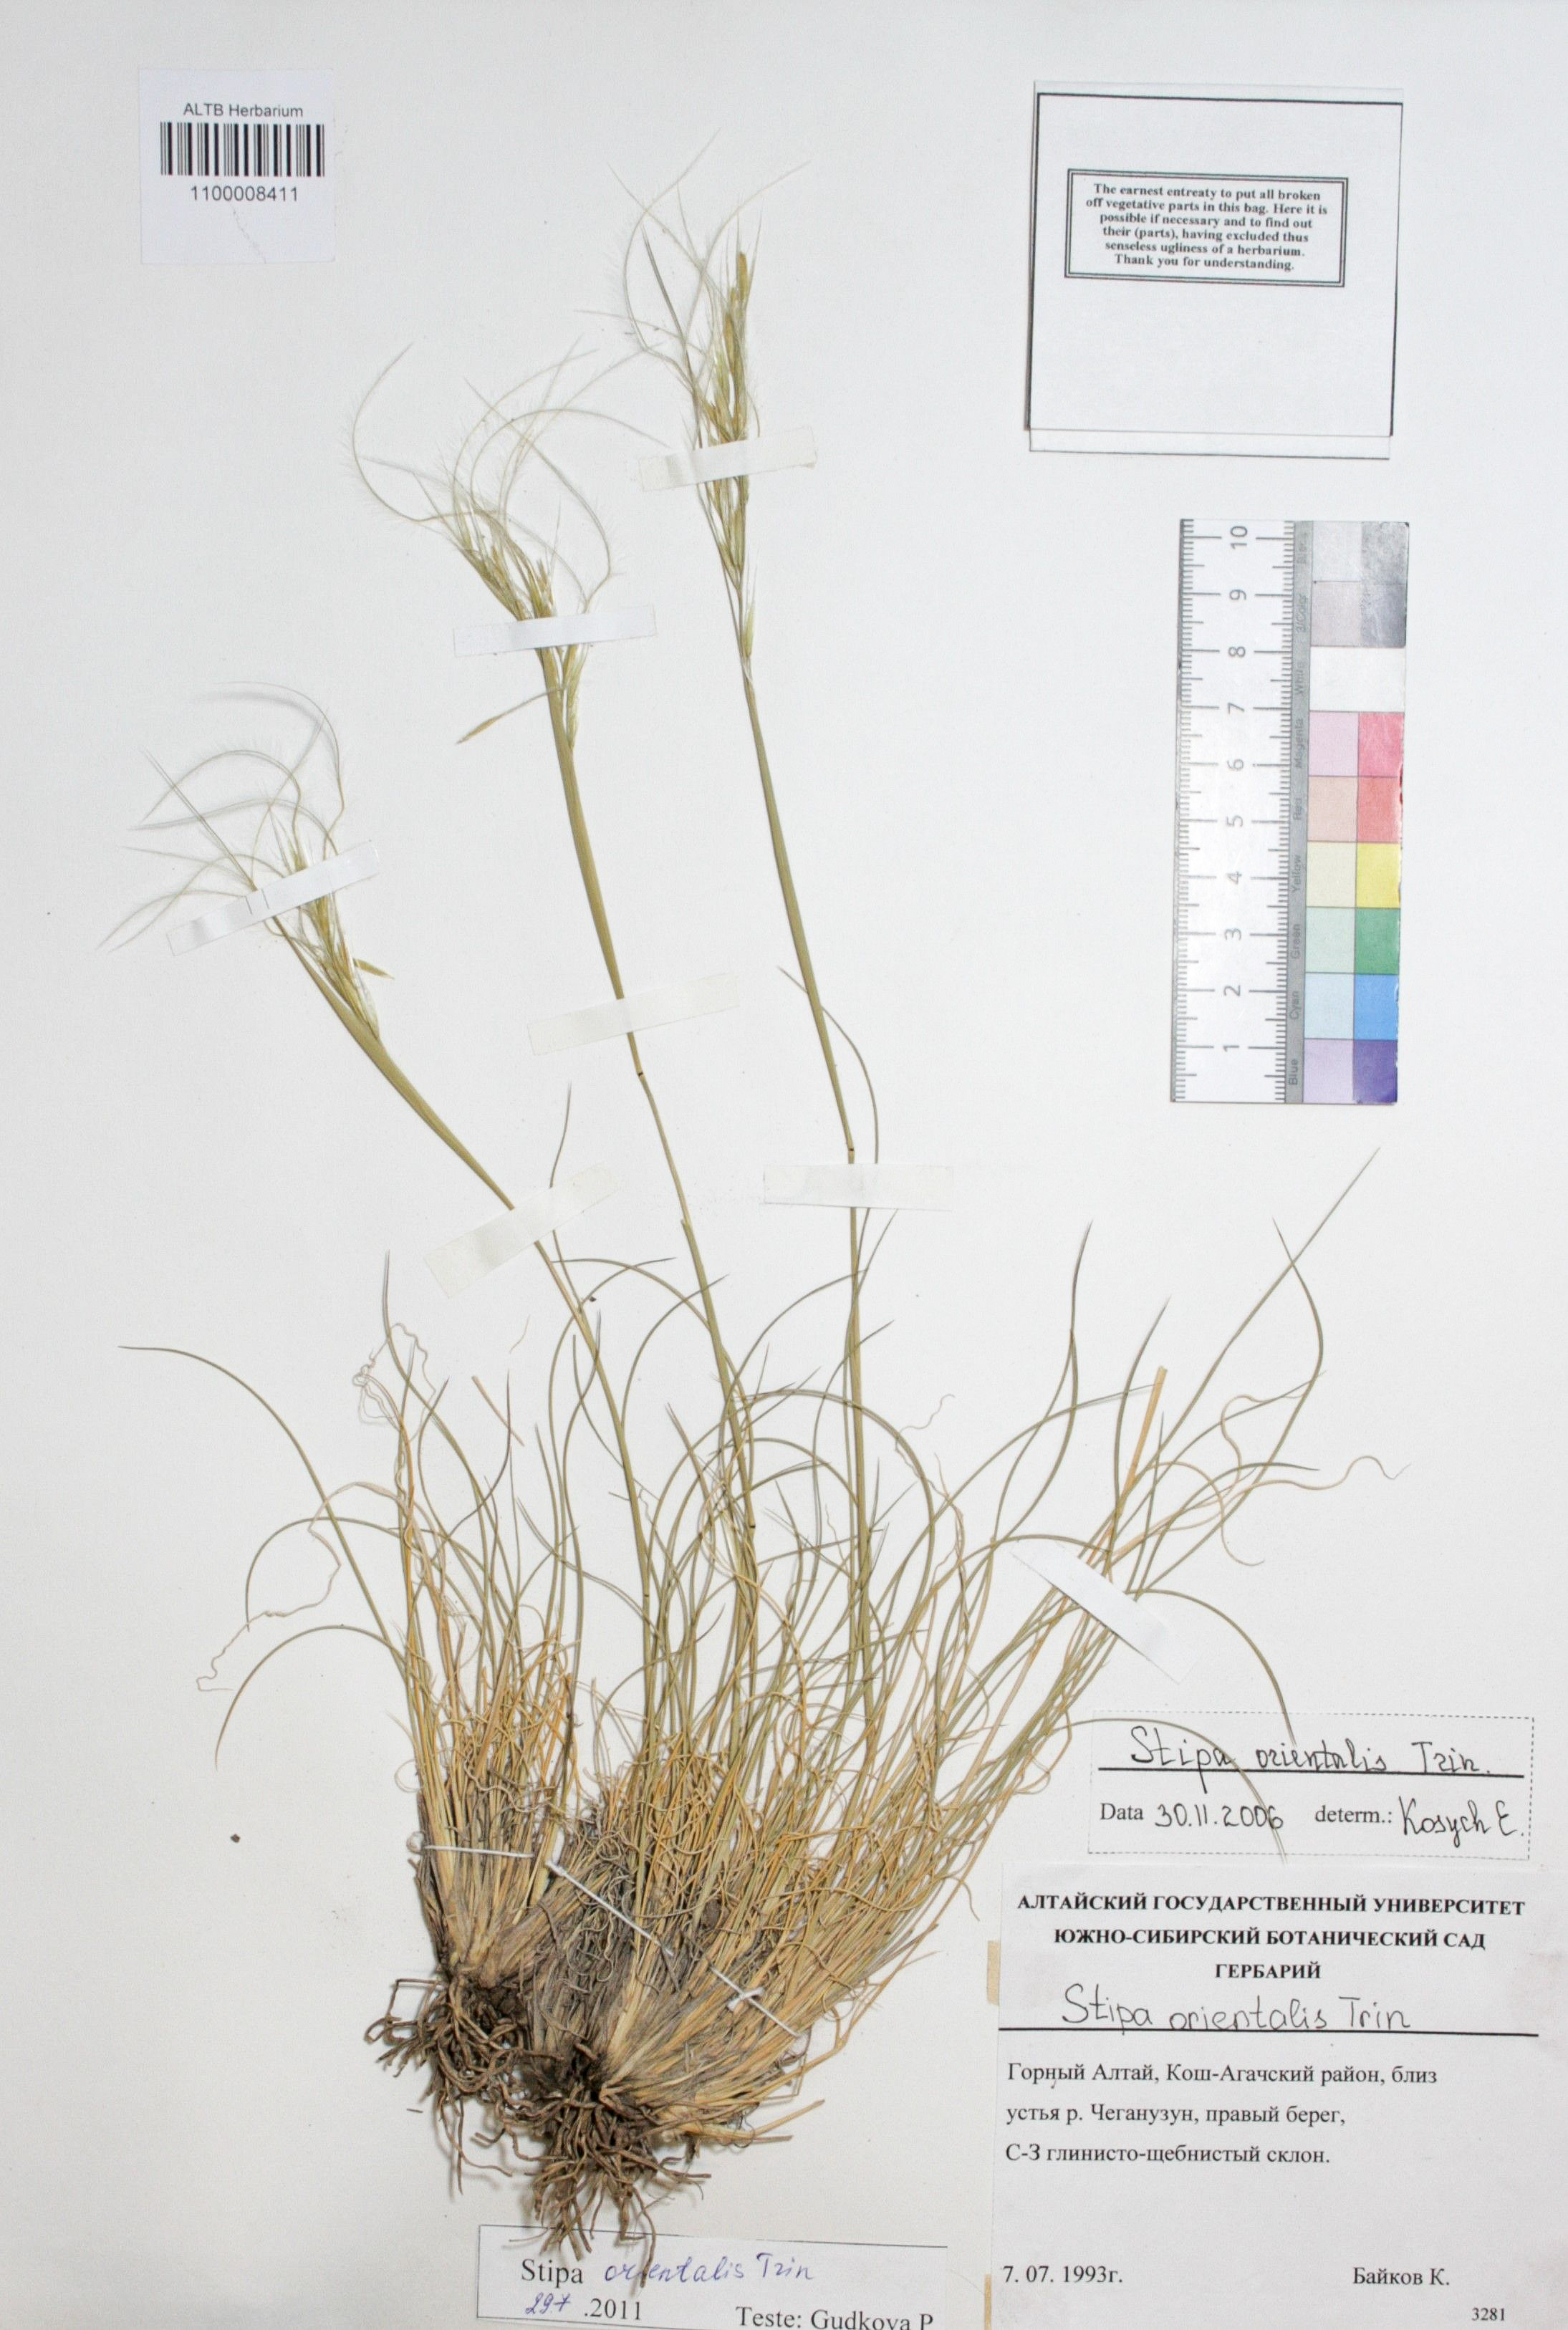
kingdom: Plantae
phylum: Tracheophyta
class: Liliopsida
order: Poales
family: Poaceae
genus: Stipa
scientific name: Stipa orientalis
